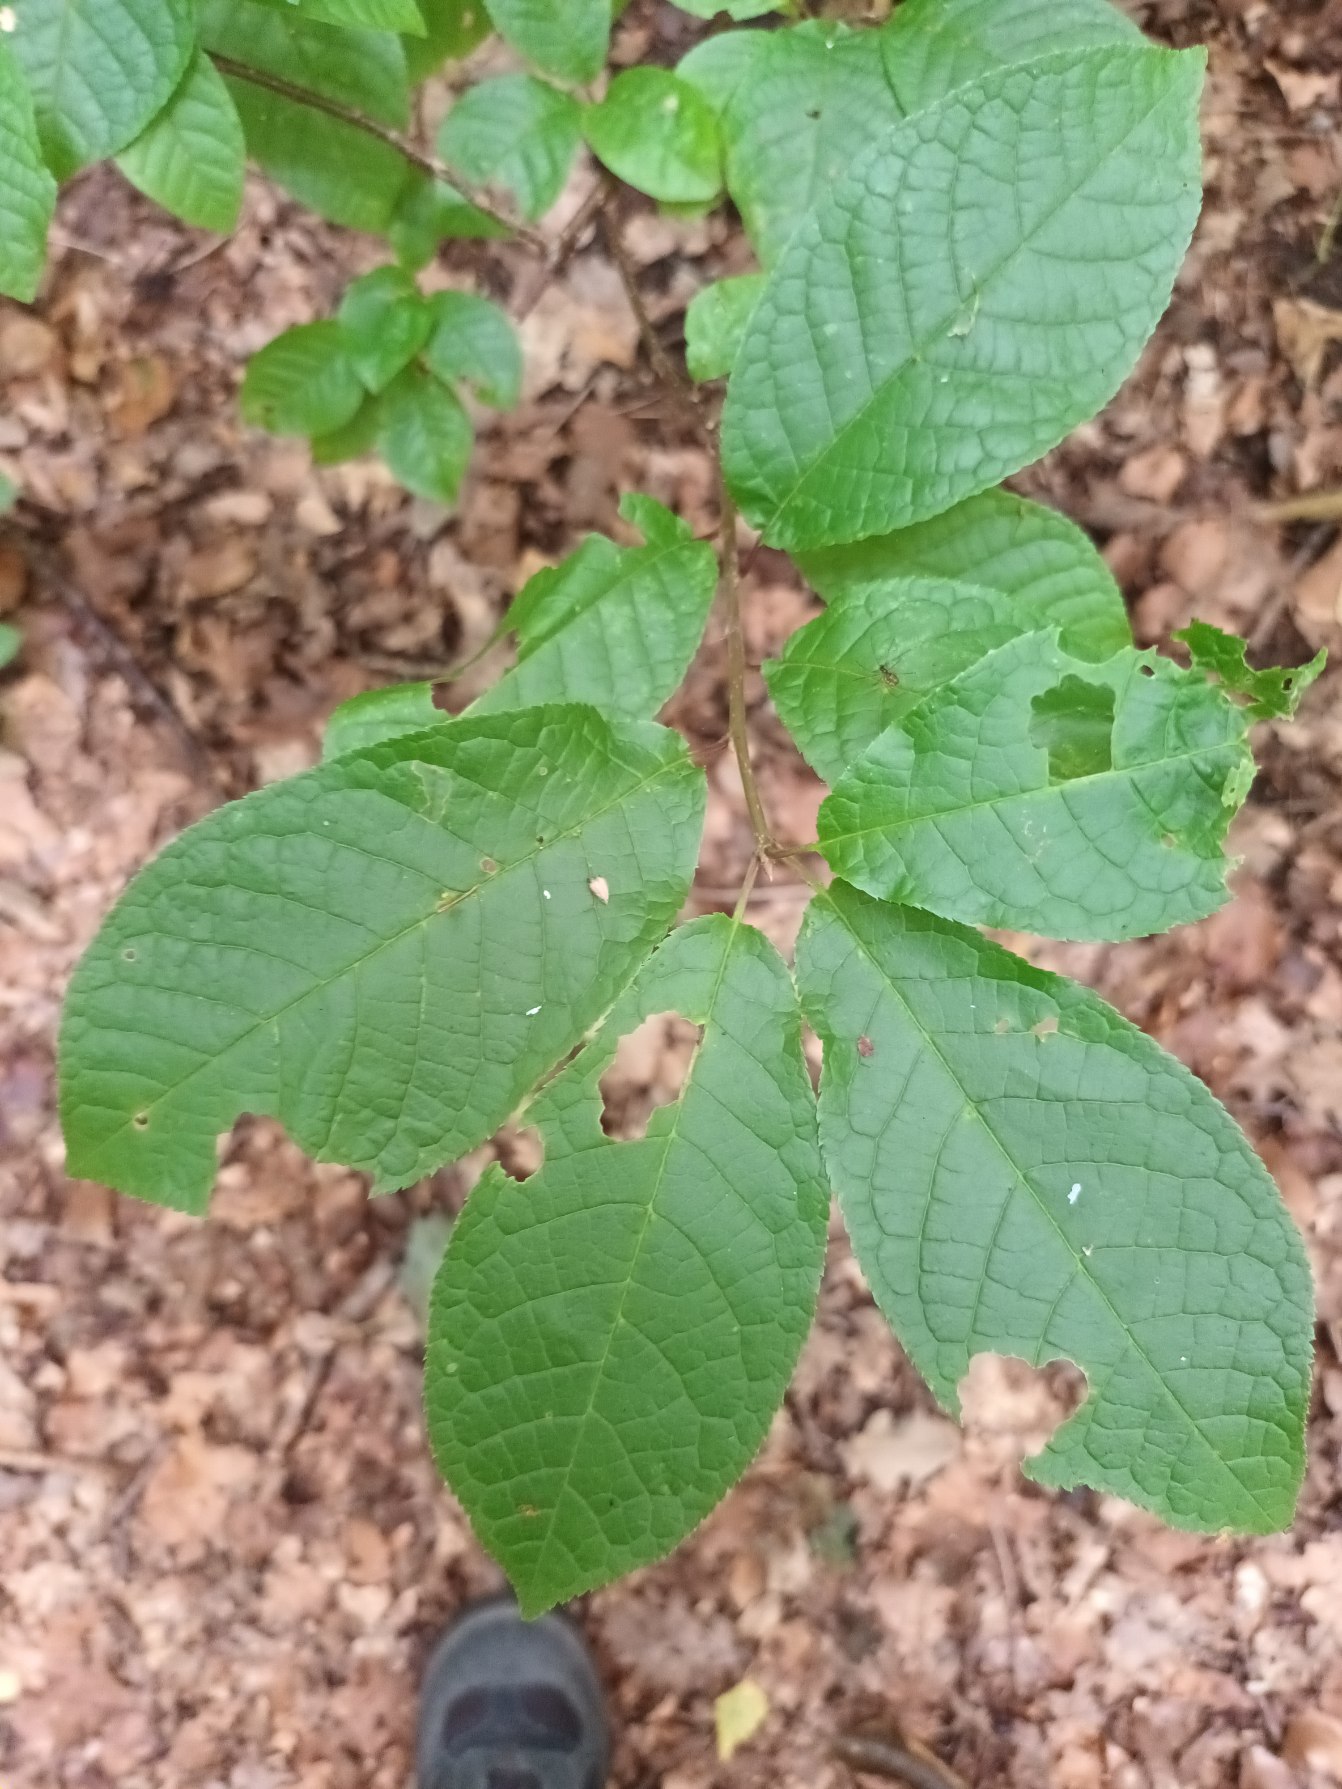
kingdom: Plantae
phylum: Tracheophyta
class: Magnoliopsida
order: Rosales
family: Rosaceae
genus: Prunus
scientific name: Prunus padus
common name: Almindelig hæg
